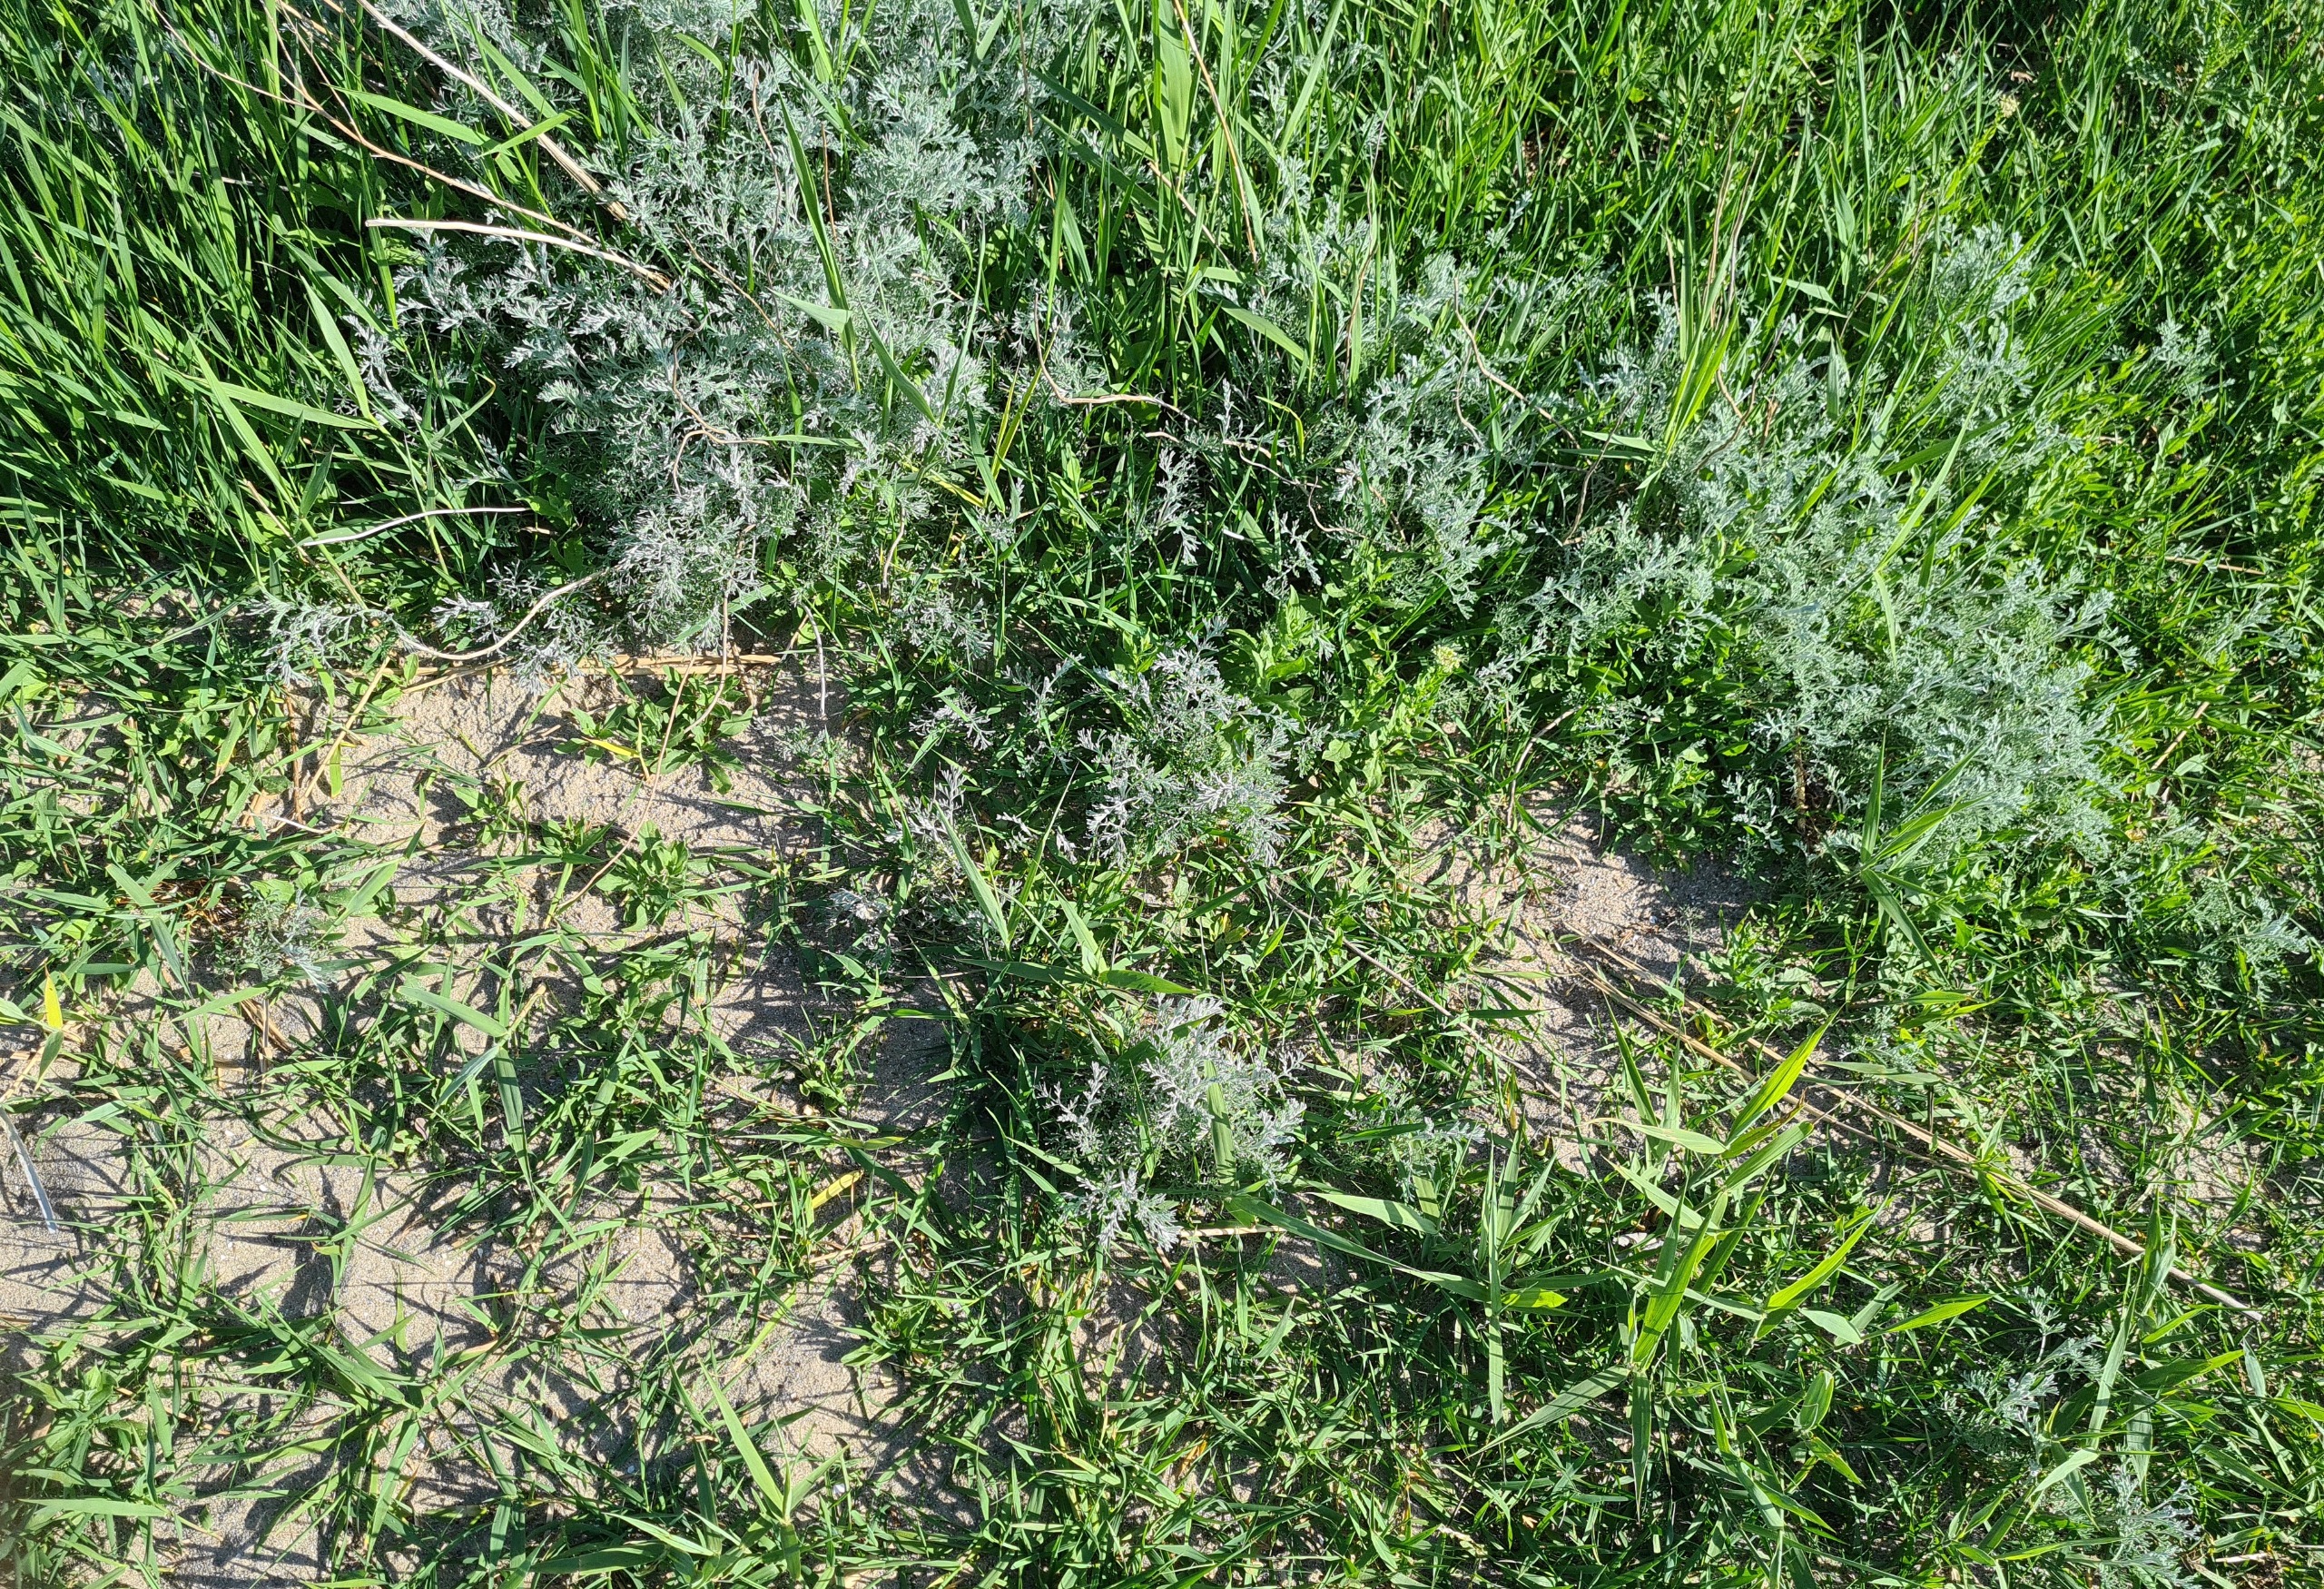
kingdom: Plantae
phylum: Tracheophyta
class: Magnoliopsida
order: Asterales
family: Asteraceae
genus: Artemisia
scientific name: Artemisia maritima
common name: Strandmalurt
